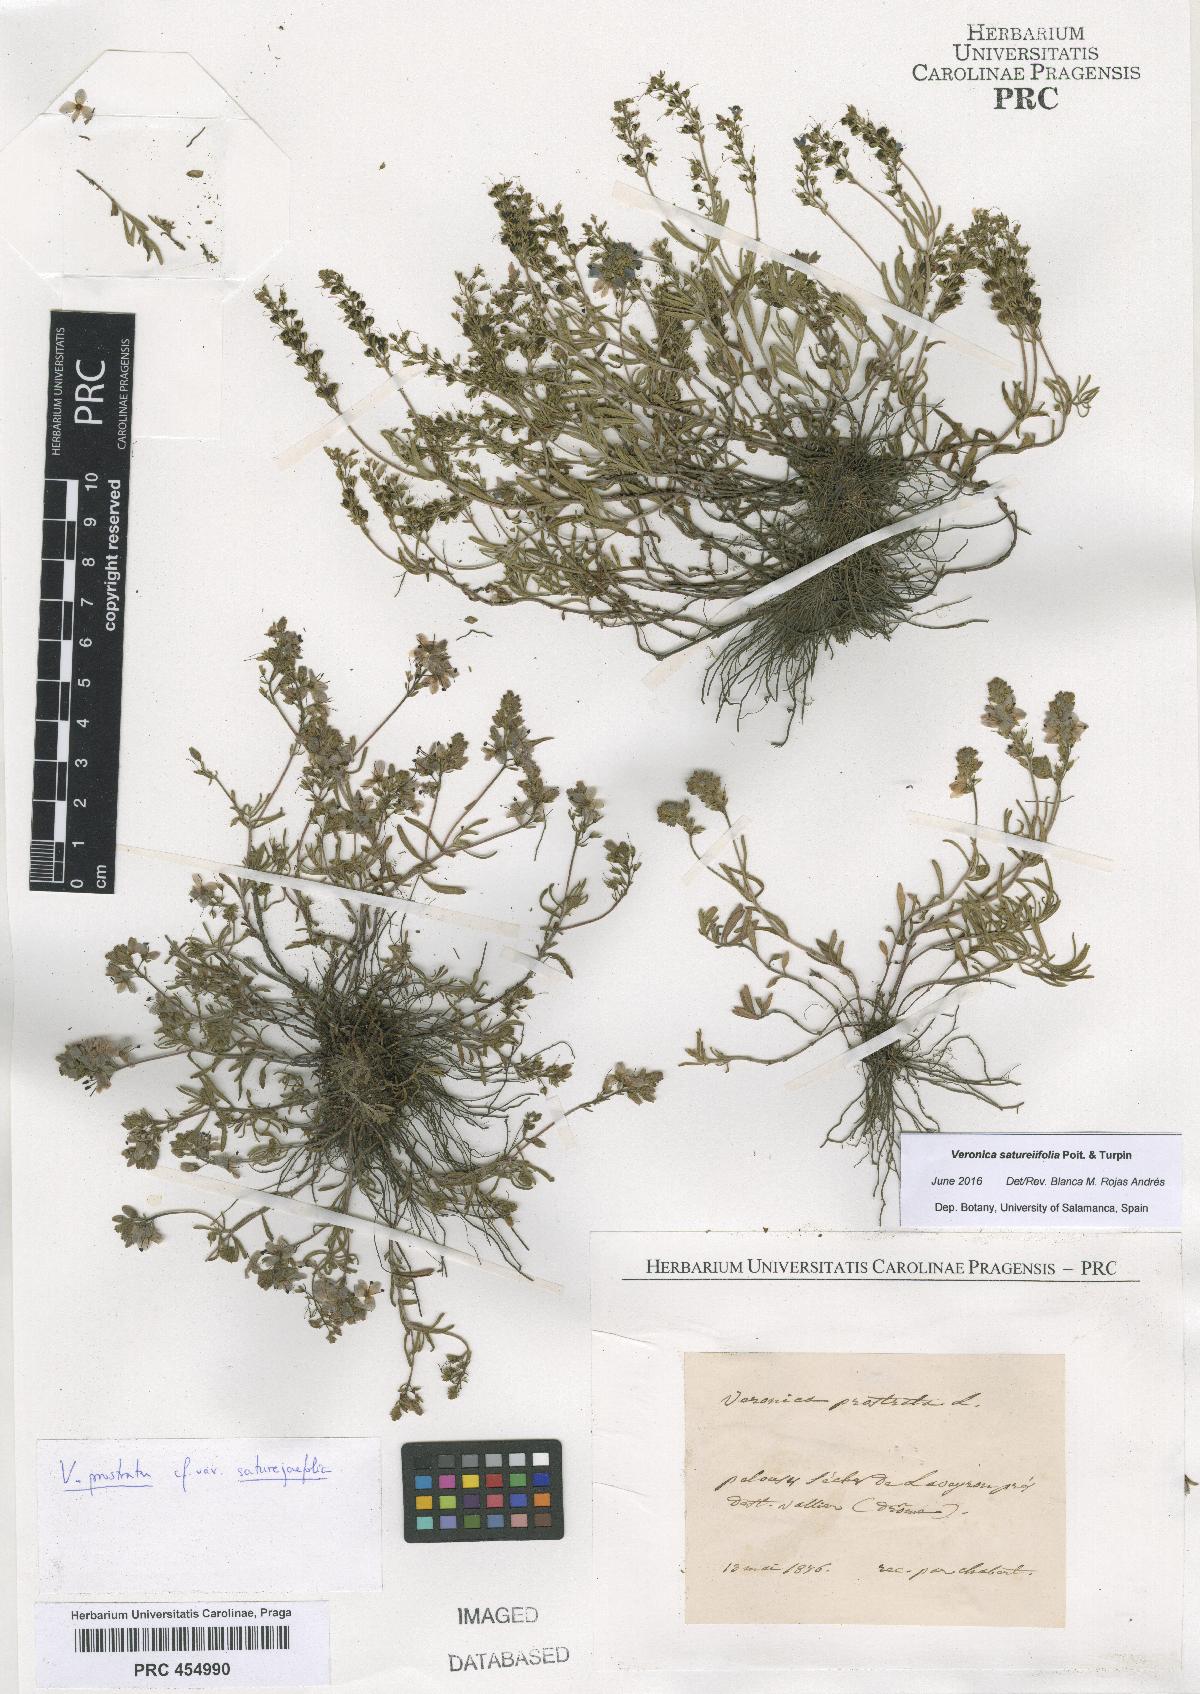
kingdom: Plantae
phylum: Tracheophyta
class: Magnoliopsida
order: Lamiales
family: Plantaginaceae
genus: Veronica
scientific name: Veronica satureiifolia
